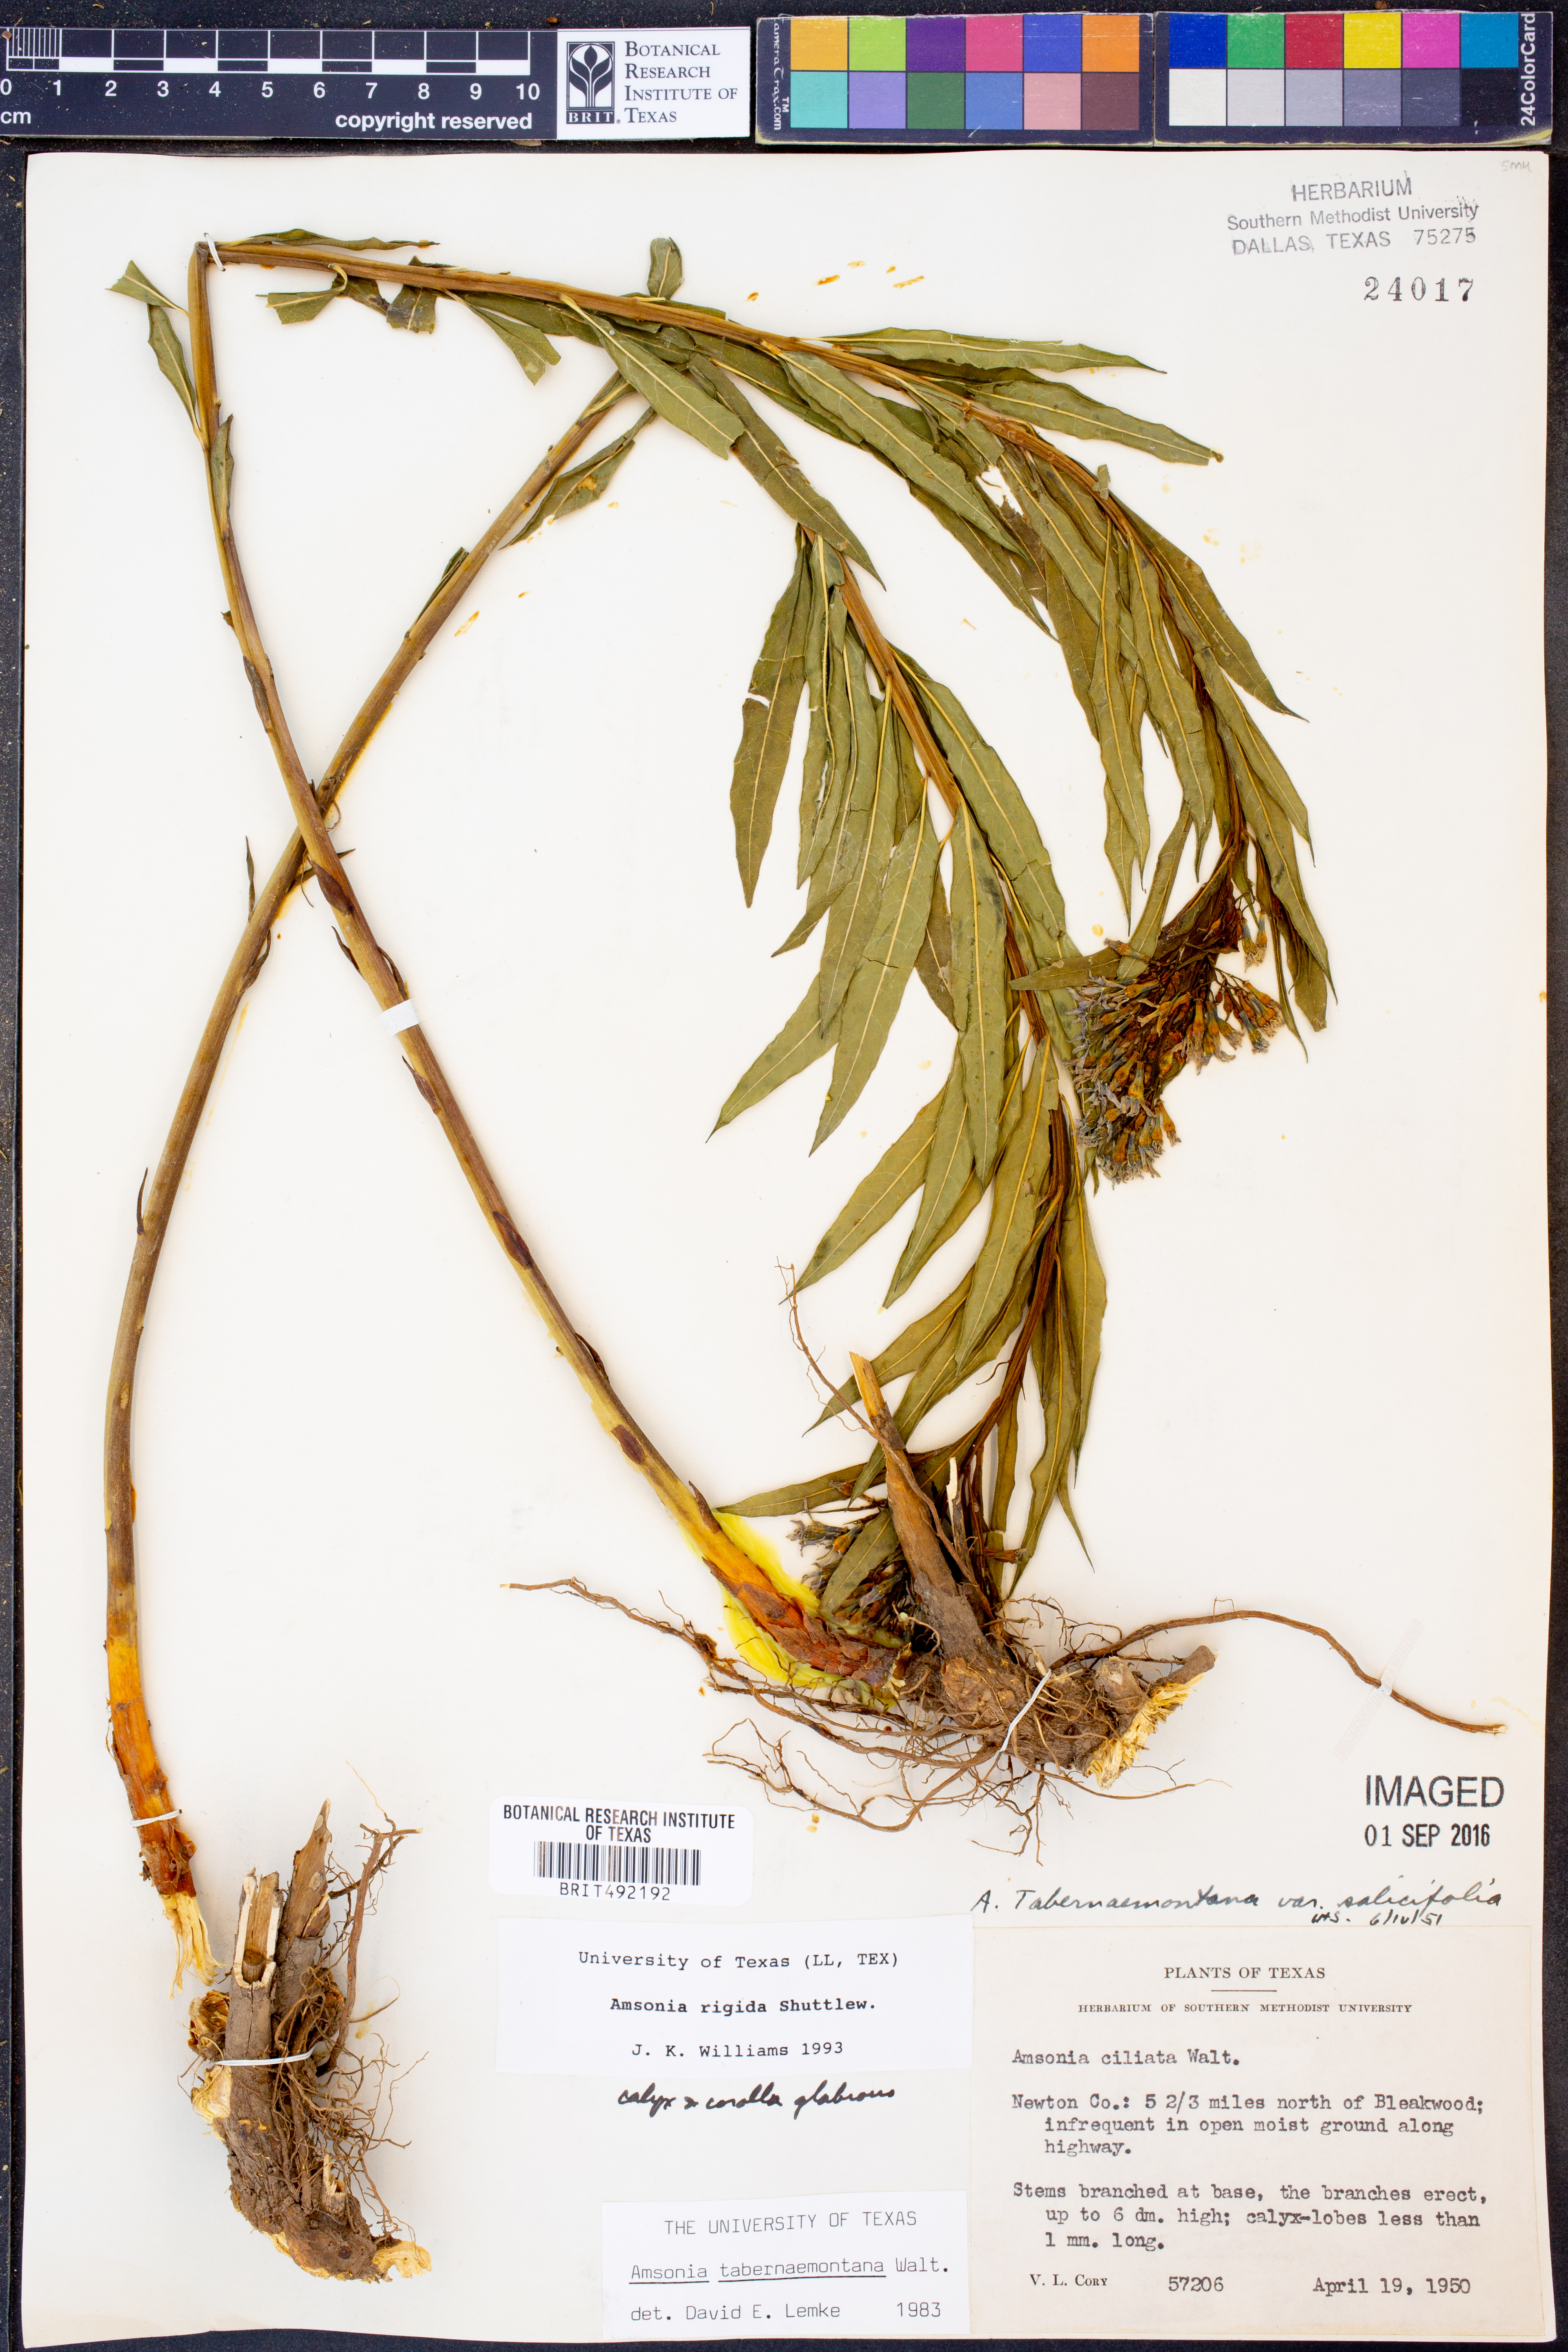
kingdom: Plantae
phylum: Tracheophyta
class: Magnoliopsida
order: Gentianales
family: Apocynaceae
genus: Amsonia
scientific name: Amsonia rigida
